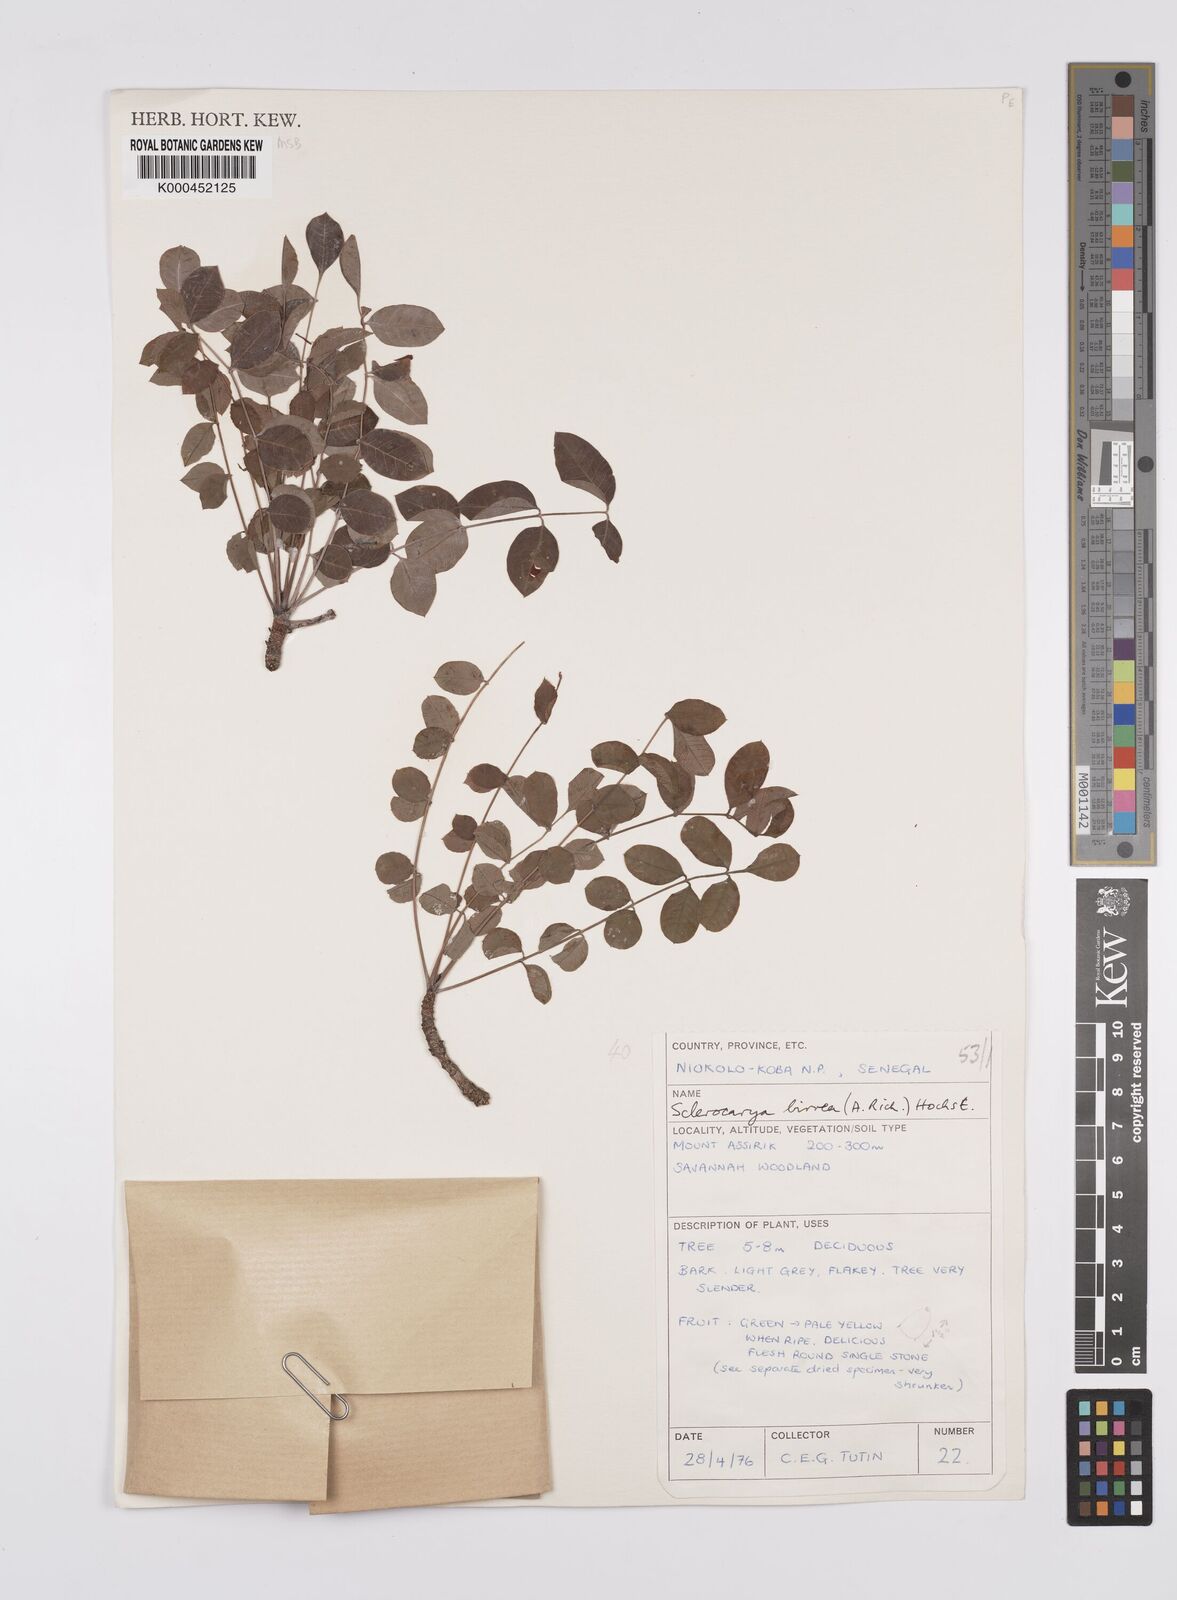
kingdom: Plantae
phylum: Tracheophyta
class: Magnoliopsida
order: Sapindales
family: Anacardiaceae
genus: Sclerocarya
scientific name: Sclerocarya birrea
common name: Marula
